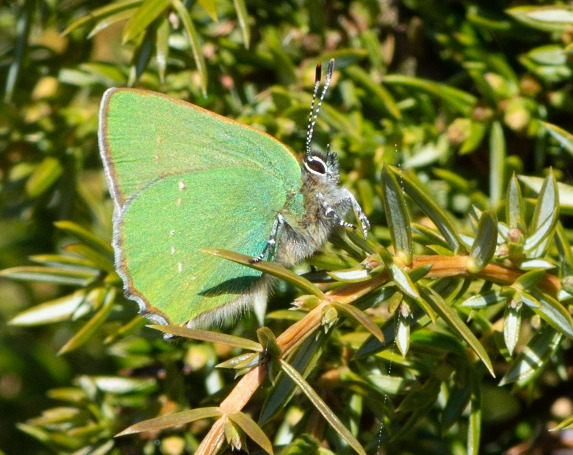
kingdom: Animalia
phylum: Arthropoda
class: Insecta
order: Lepidoptera
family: Lycaenidae
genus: Callophrys
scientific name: Callophrys rubi
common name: Grøn busksommerfugl
